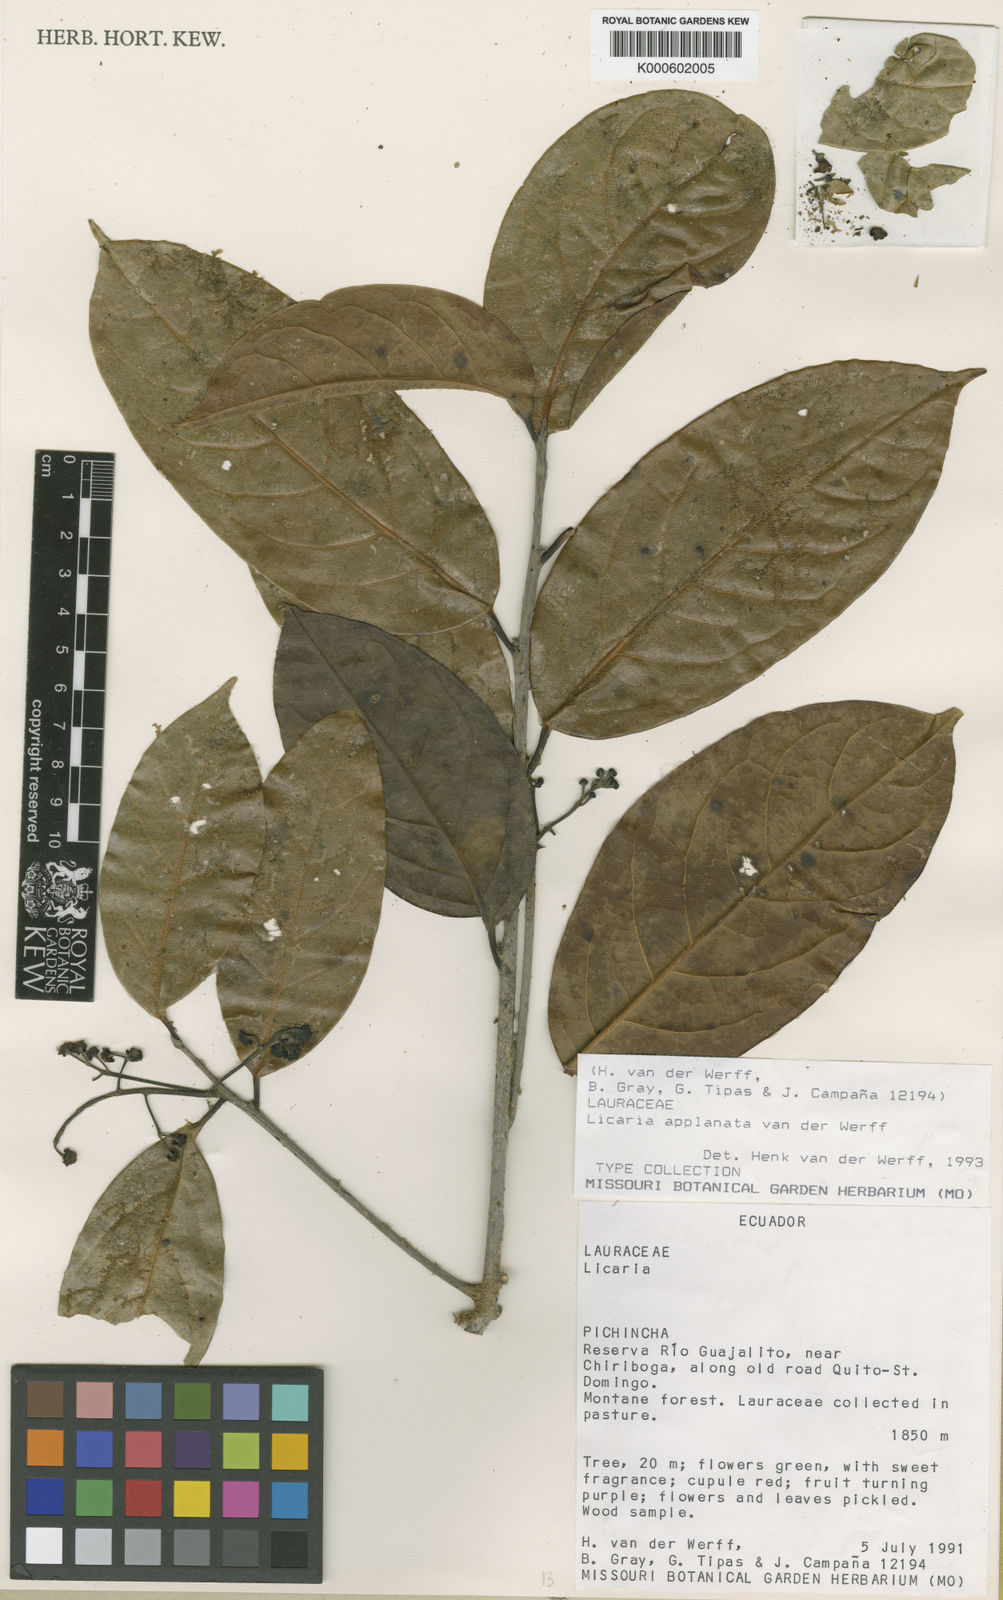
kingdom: Plantae
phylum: Tracheophyta
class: Magnoliopsida
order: Laurales
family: Lauraceae
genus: Licaria
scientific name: Licaria applanata
